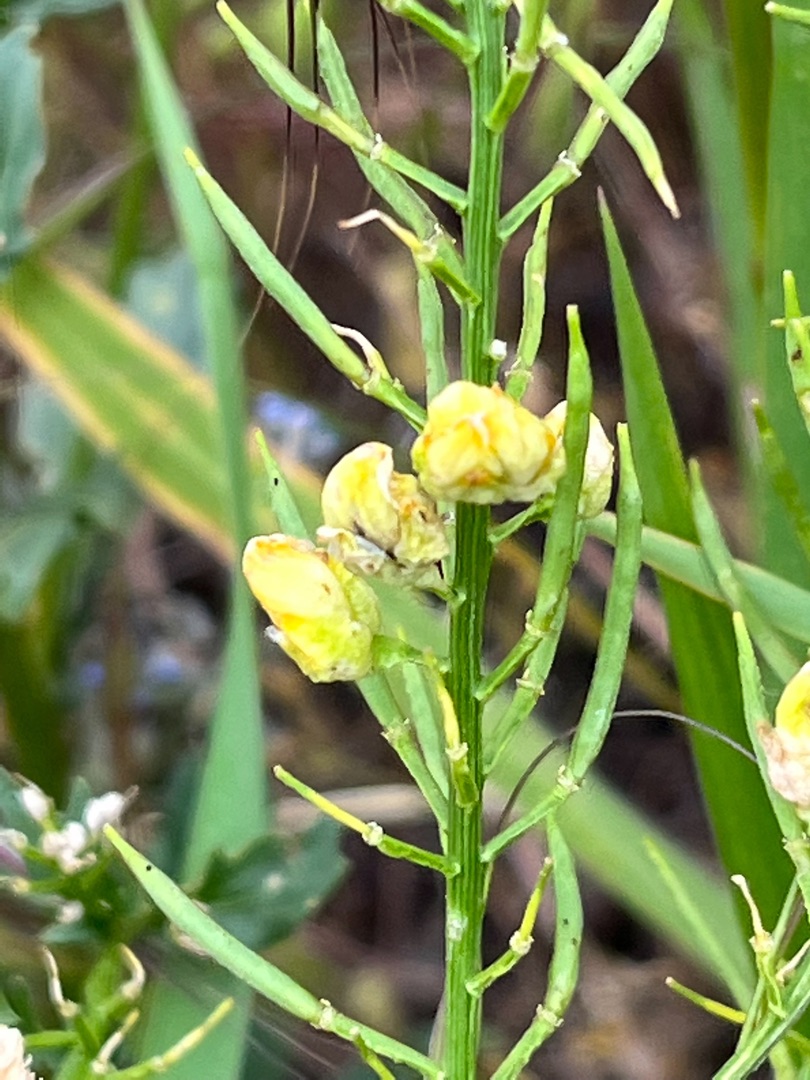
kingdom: Animalia
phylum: Arthropoda
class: Insecta
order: Diptera
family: Cecidomyiidae
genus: Dasineura
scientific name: Dasineura sisymbrii
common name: Vinterkarsegalmyg
